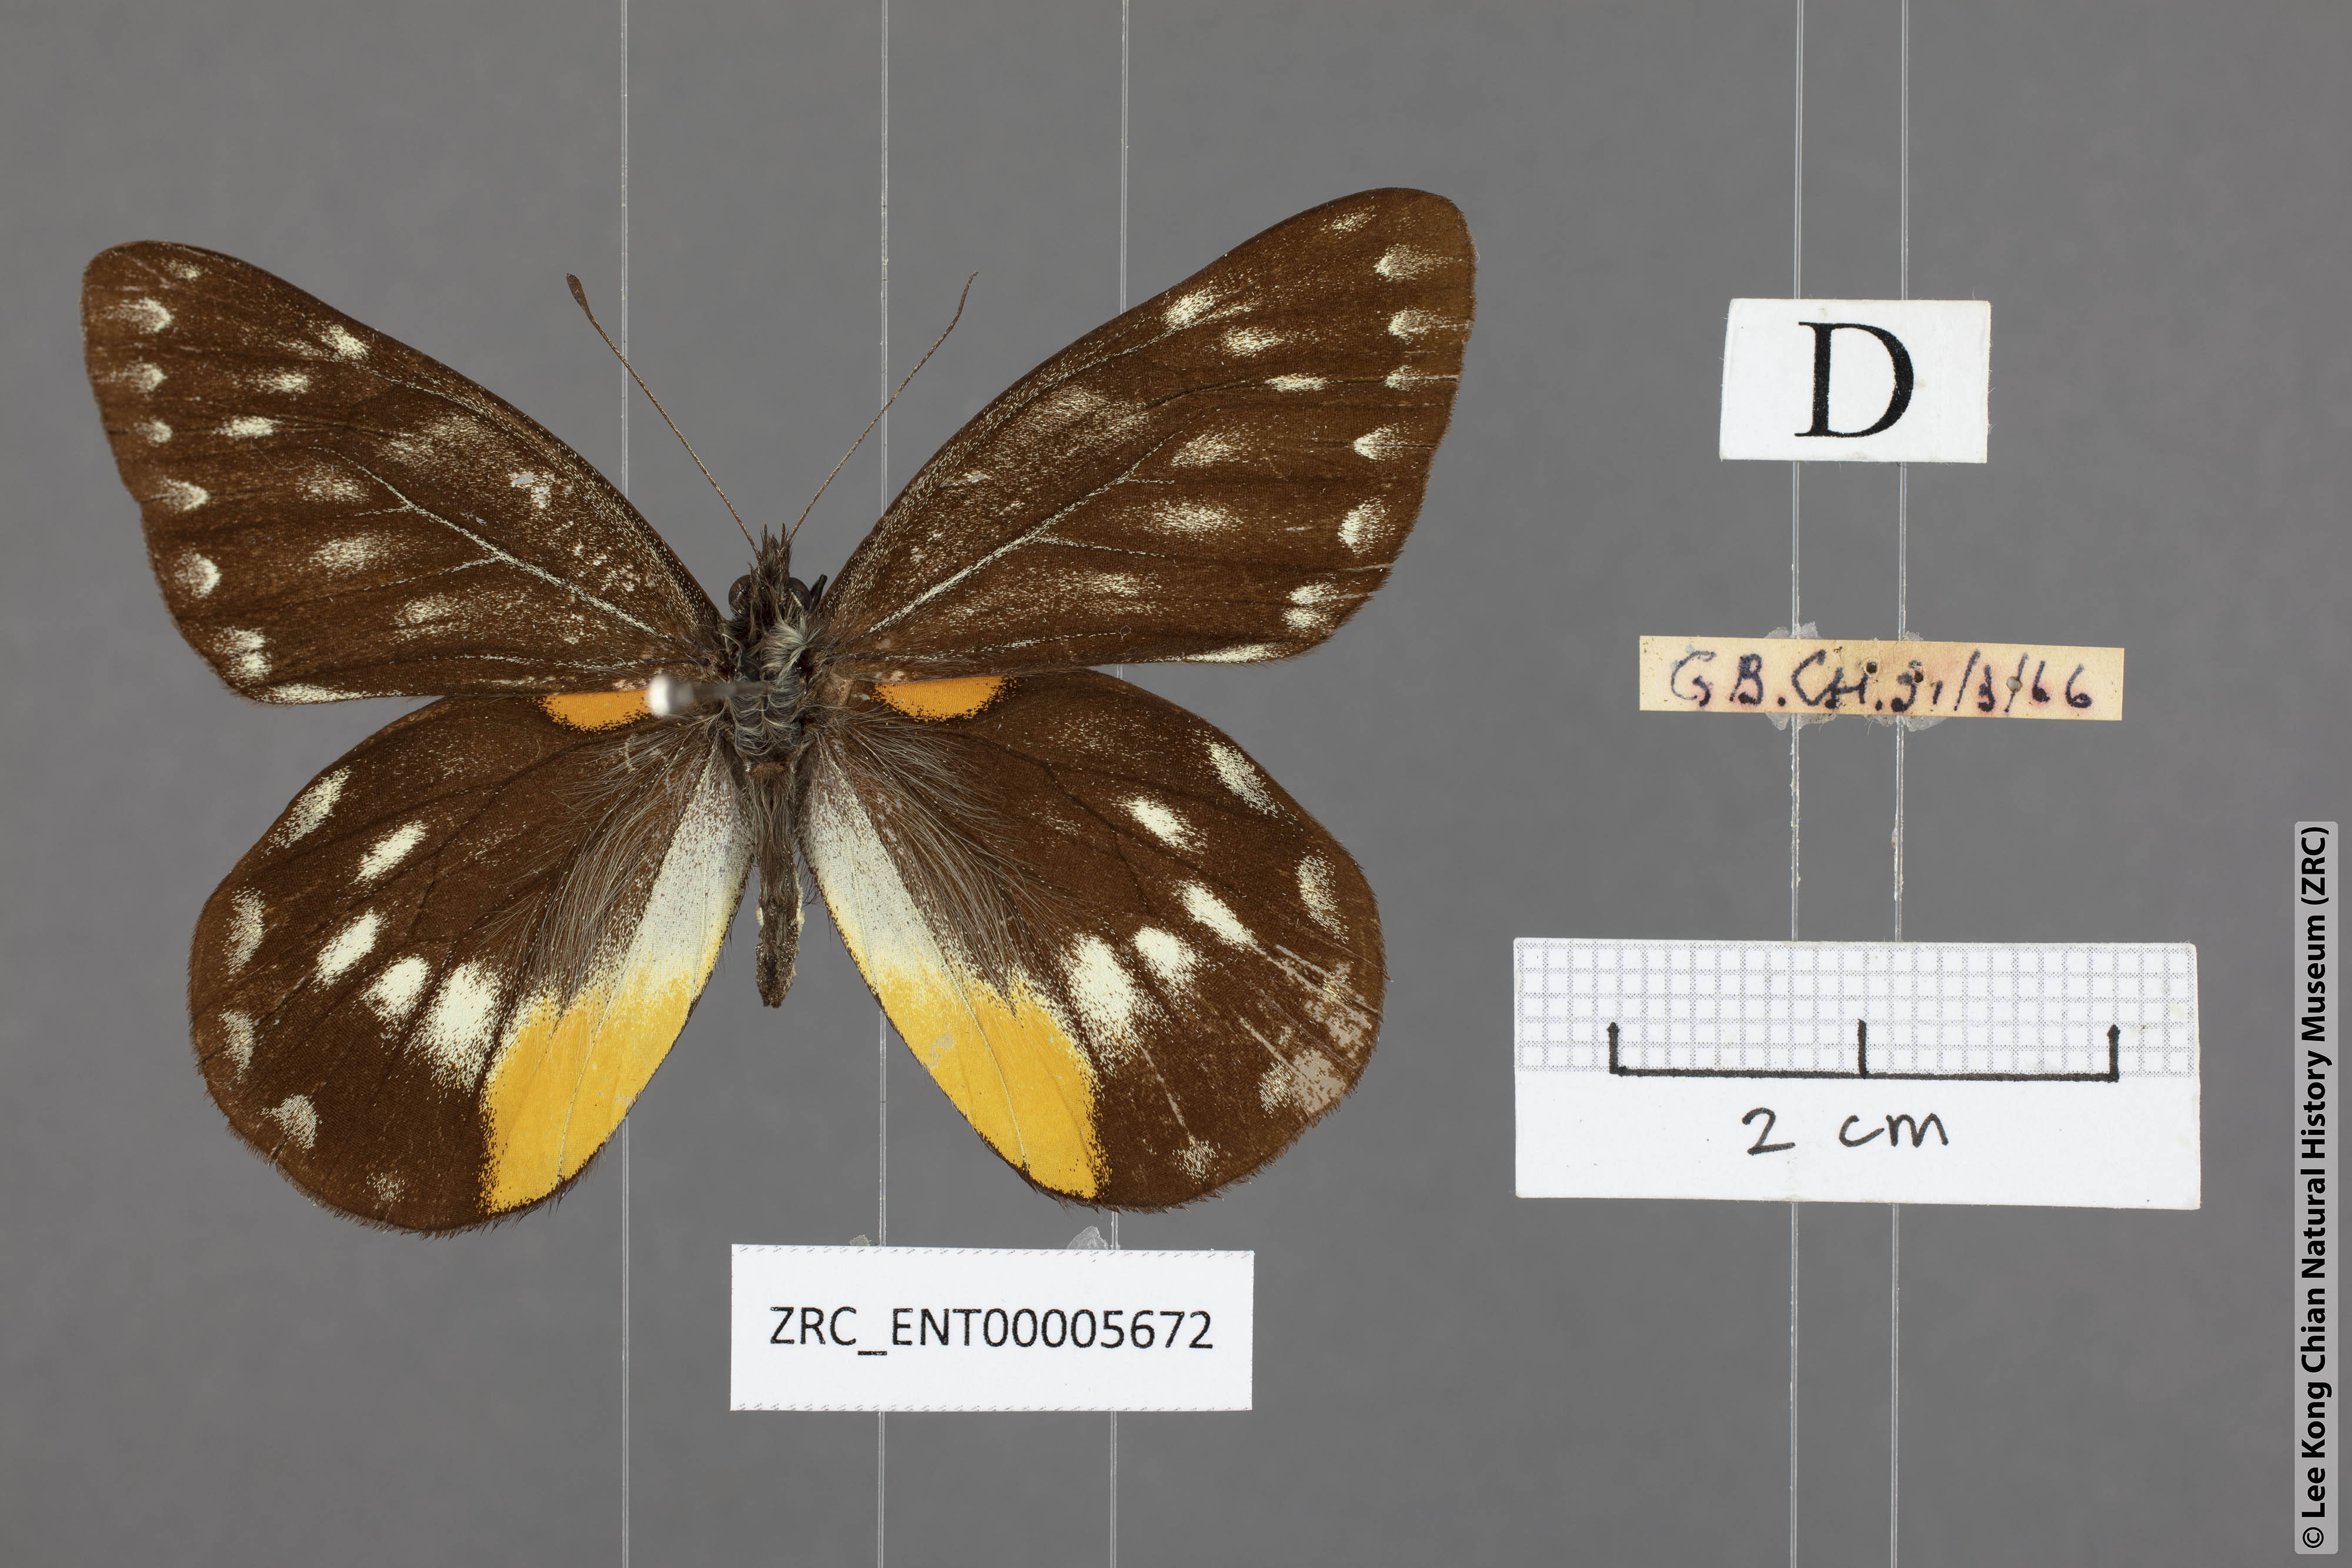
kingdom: Animalia
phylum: Arthropoda
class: Insecta
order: Lepidoptera
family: Pieridae
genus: Delias
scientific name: Delias belladonna
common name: Hill jezebel
